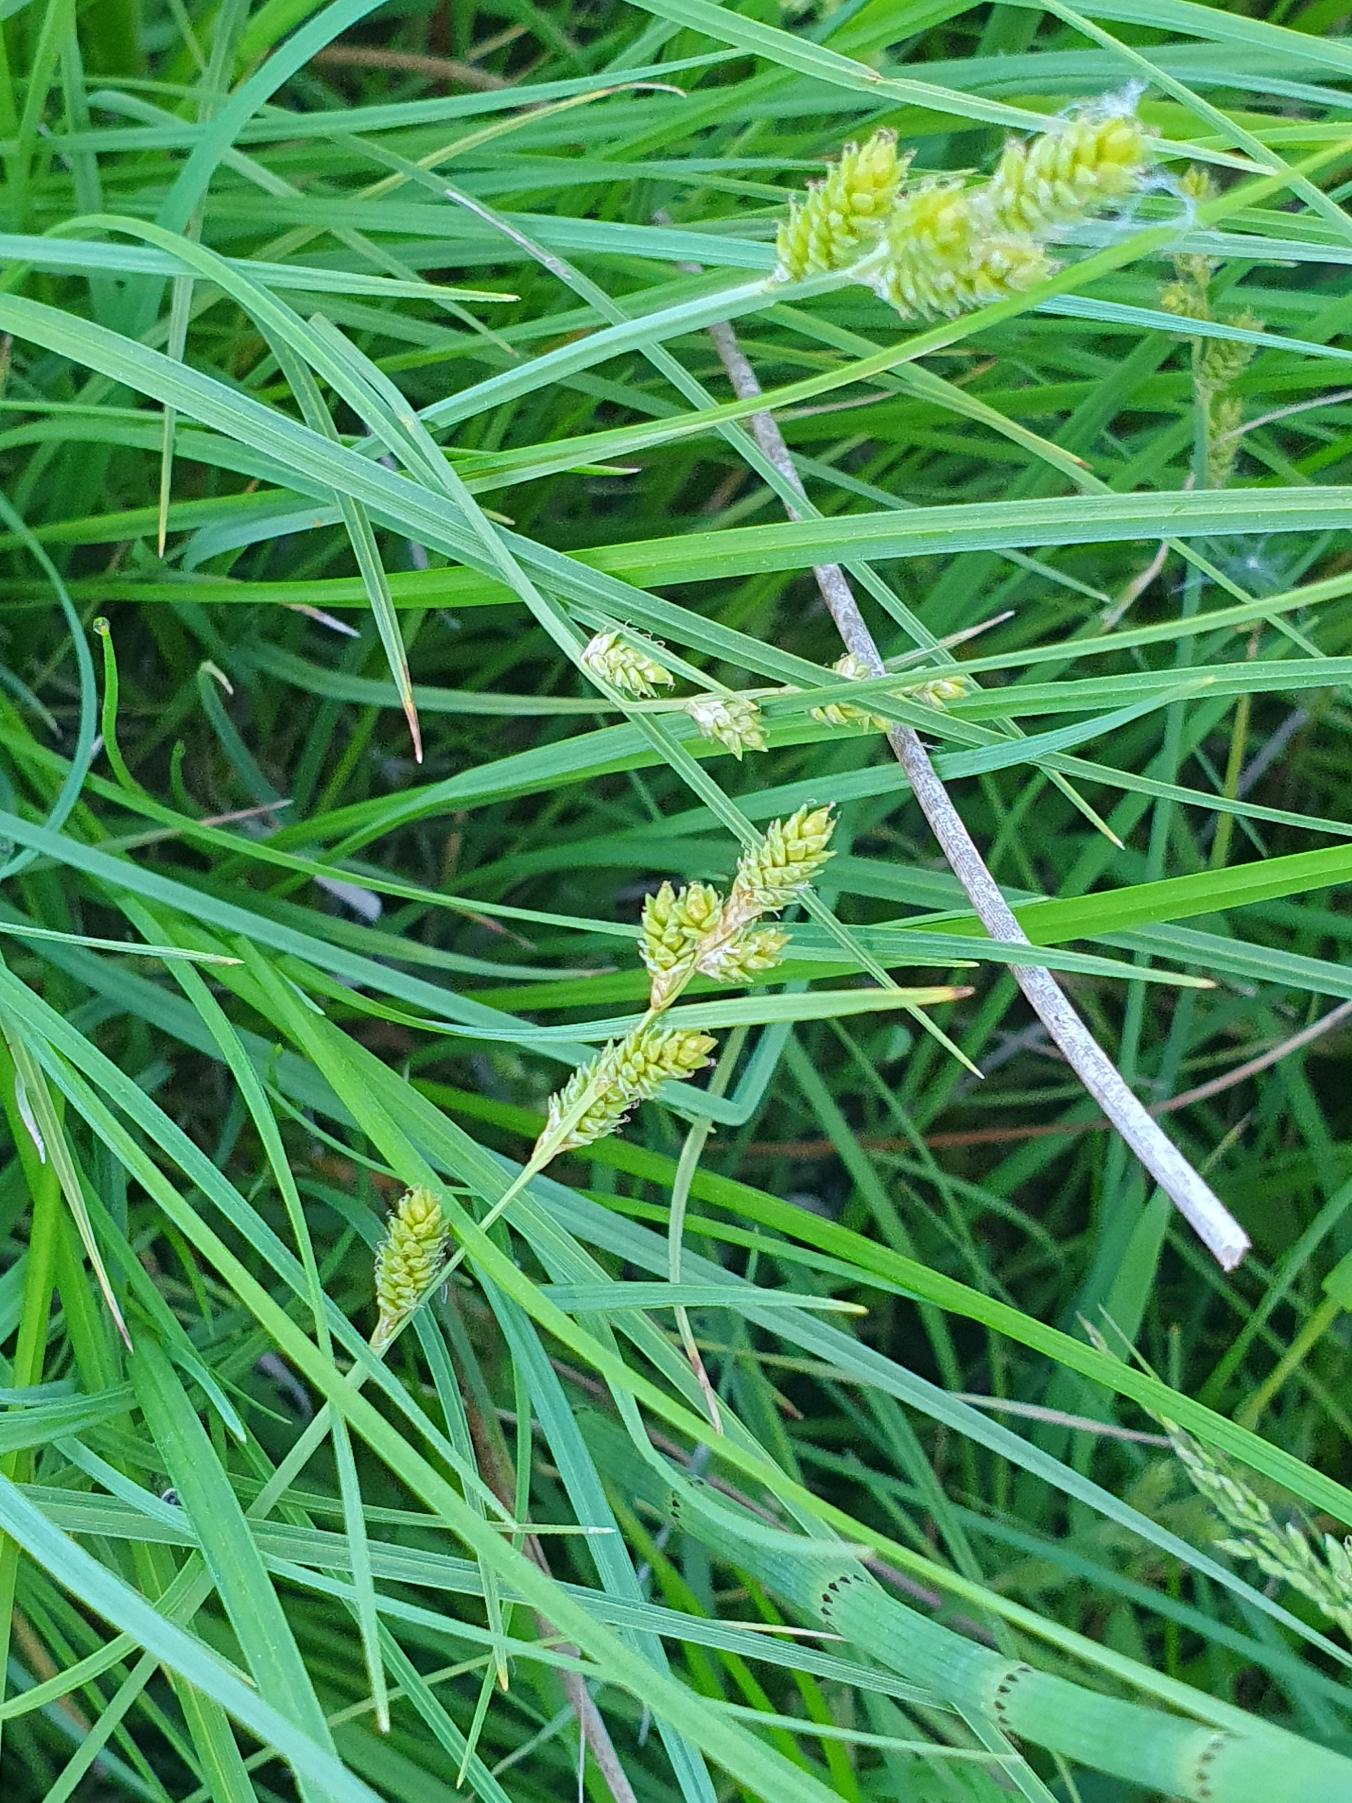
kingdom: Plantae
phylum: Tracheophyta
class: Liliopsida
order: Poales
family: Cyperaceae
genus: Carex
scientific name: Carex canescens
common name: Grå star
